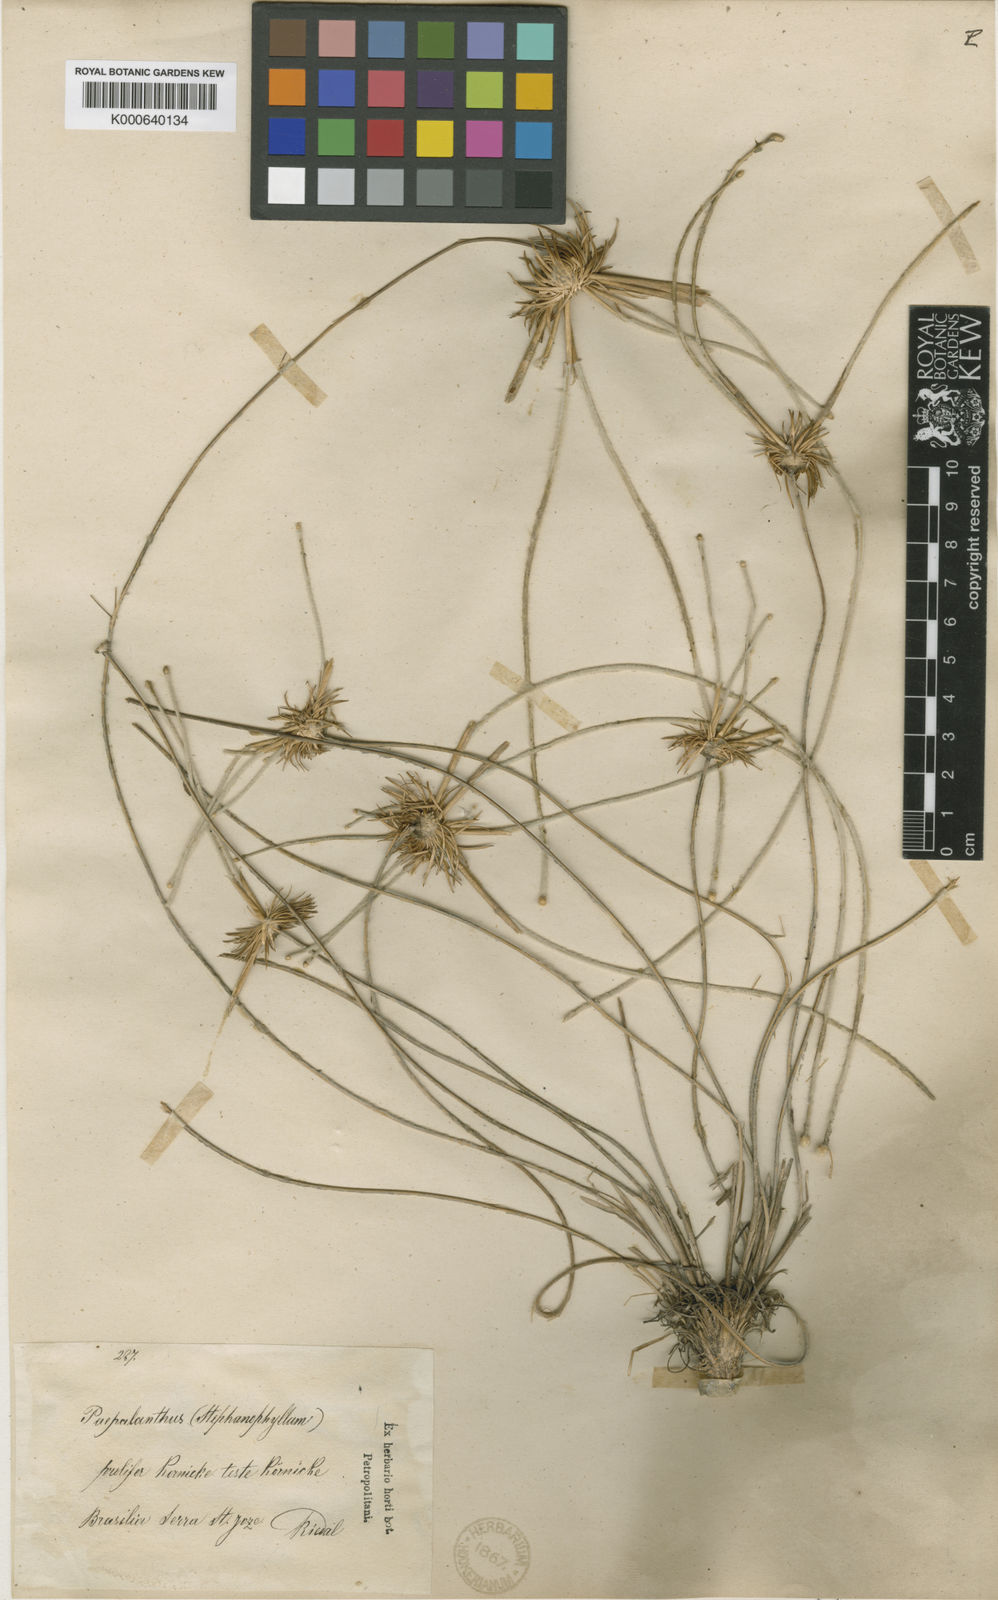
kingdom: Plantae
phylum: Tracheophyta
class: Liliopsida
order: Poales
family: Eriocaulaceae
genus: Leiothrix
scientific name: Leiothrix prolifera
